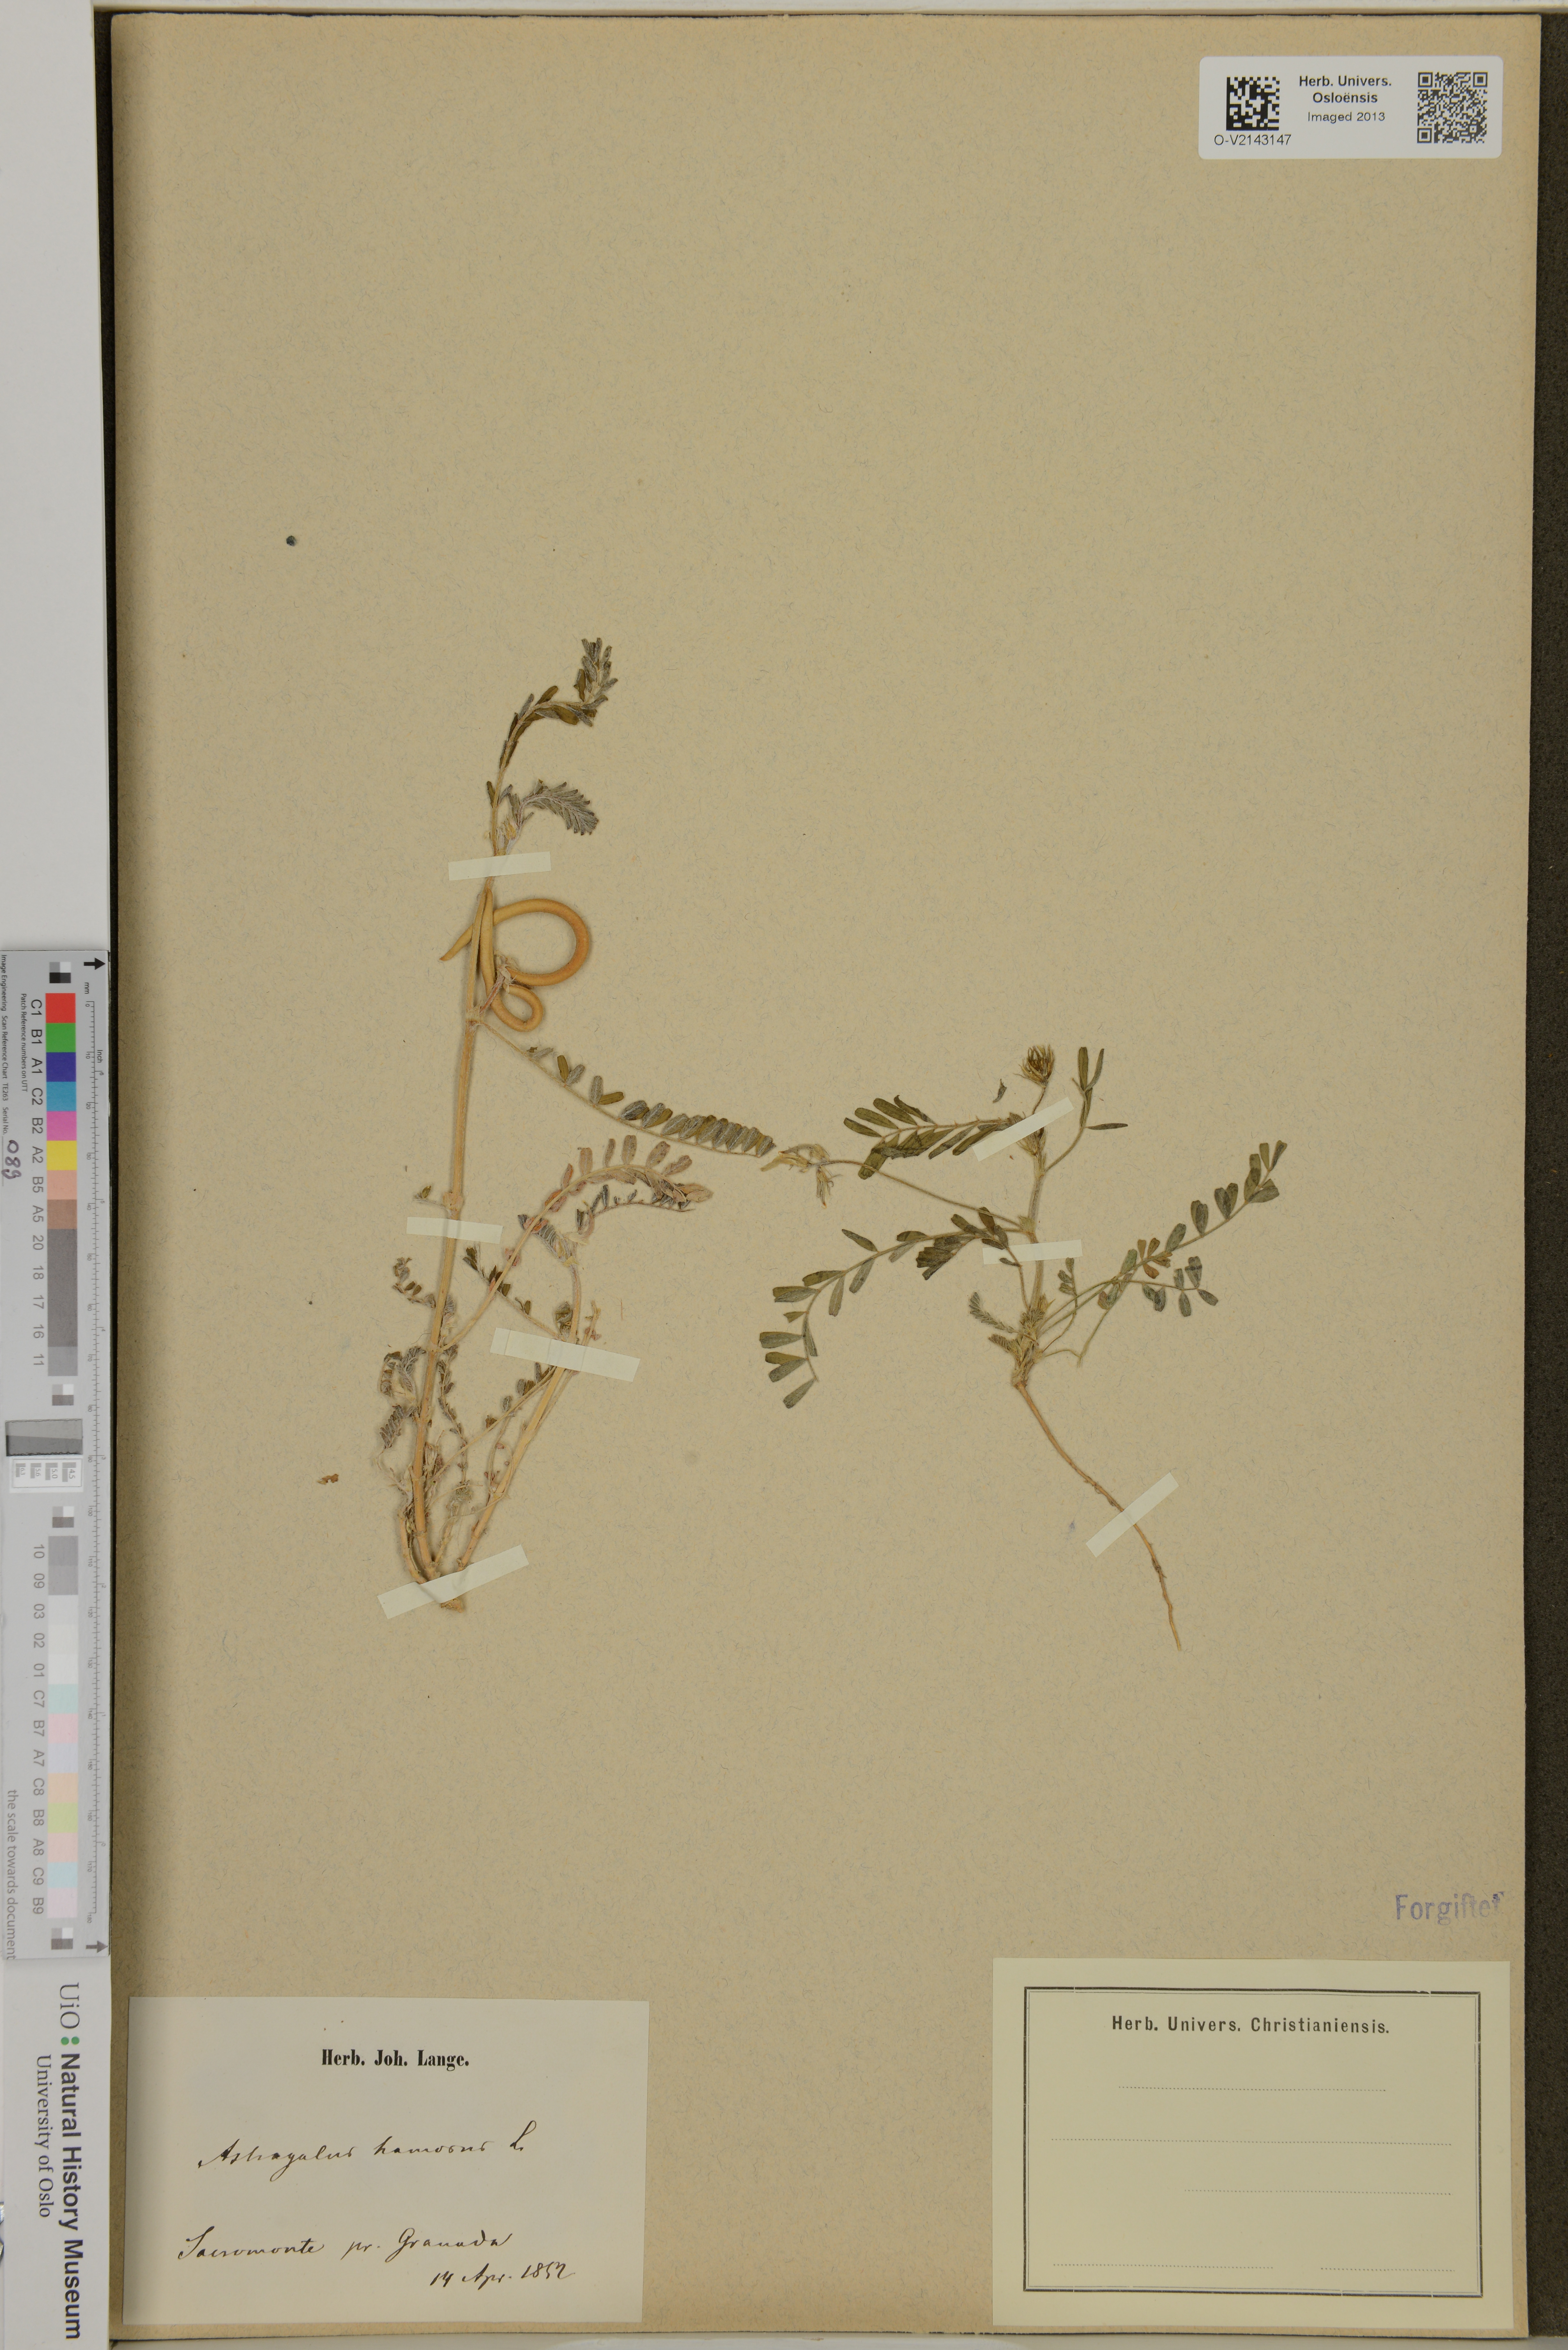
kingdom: Plantae
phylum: Tracheophyta
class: Magnoliopsida
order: Fabales
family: Fabaceae
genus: Astragalus
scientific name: Astragalus hamosus
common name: European milkvetch
